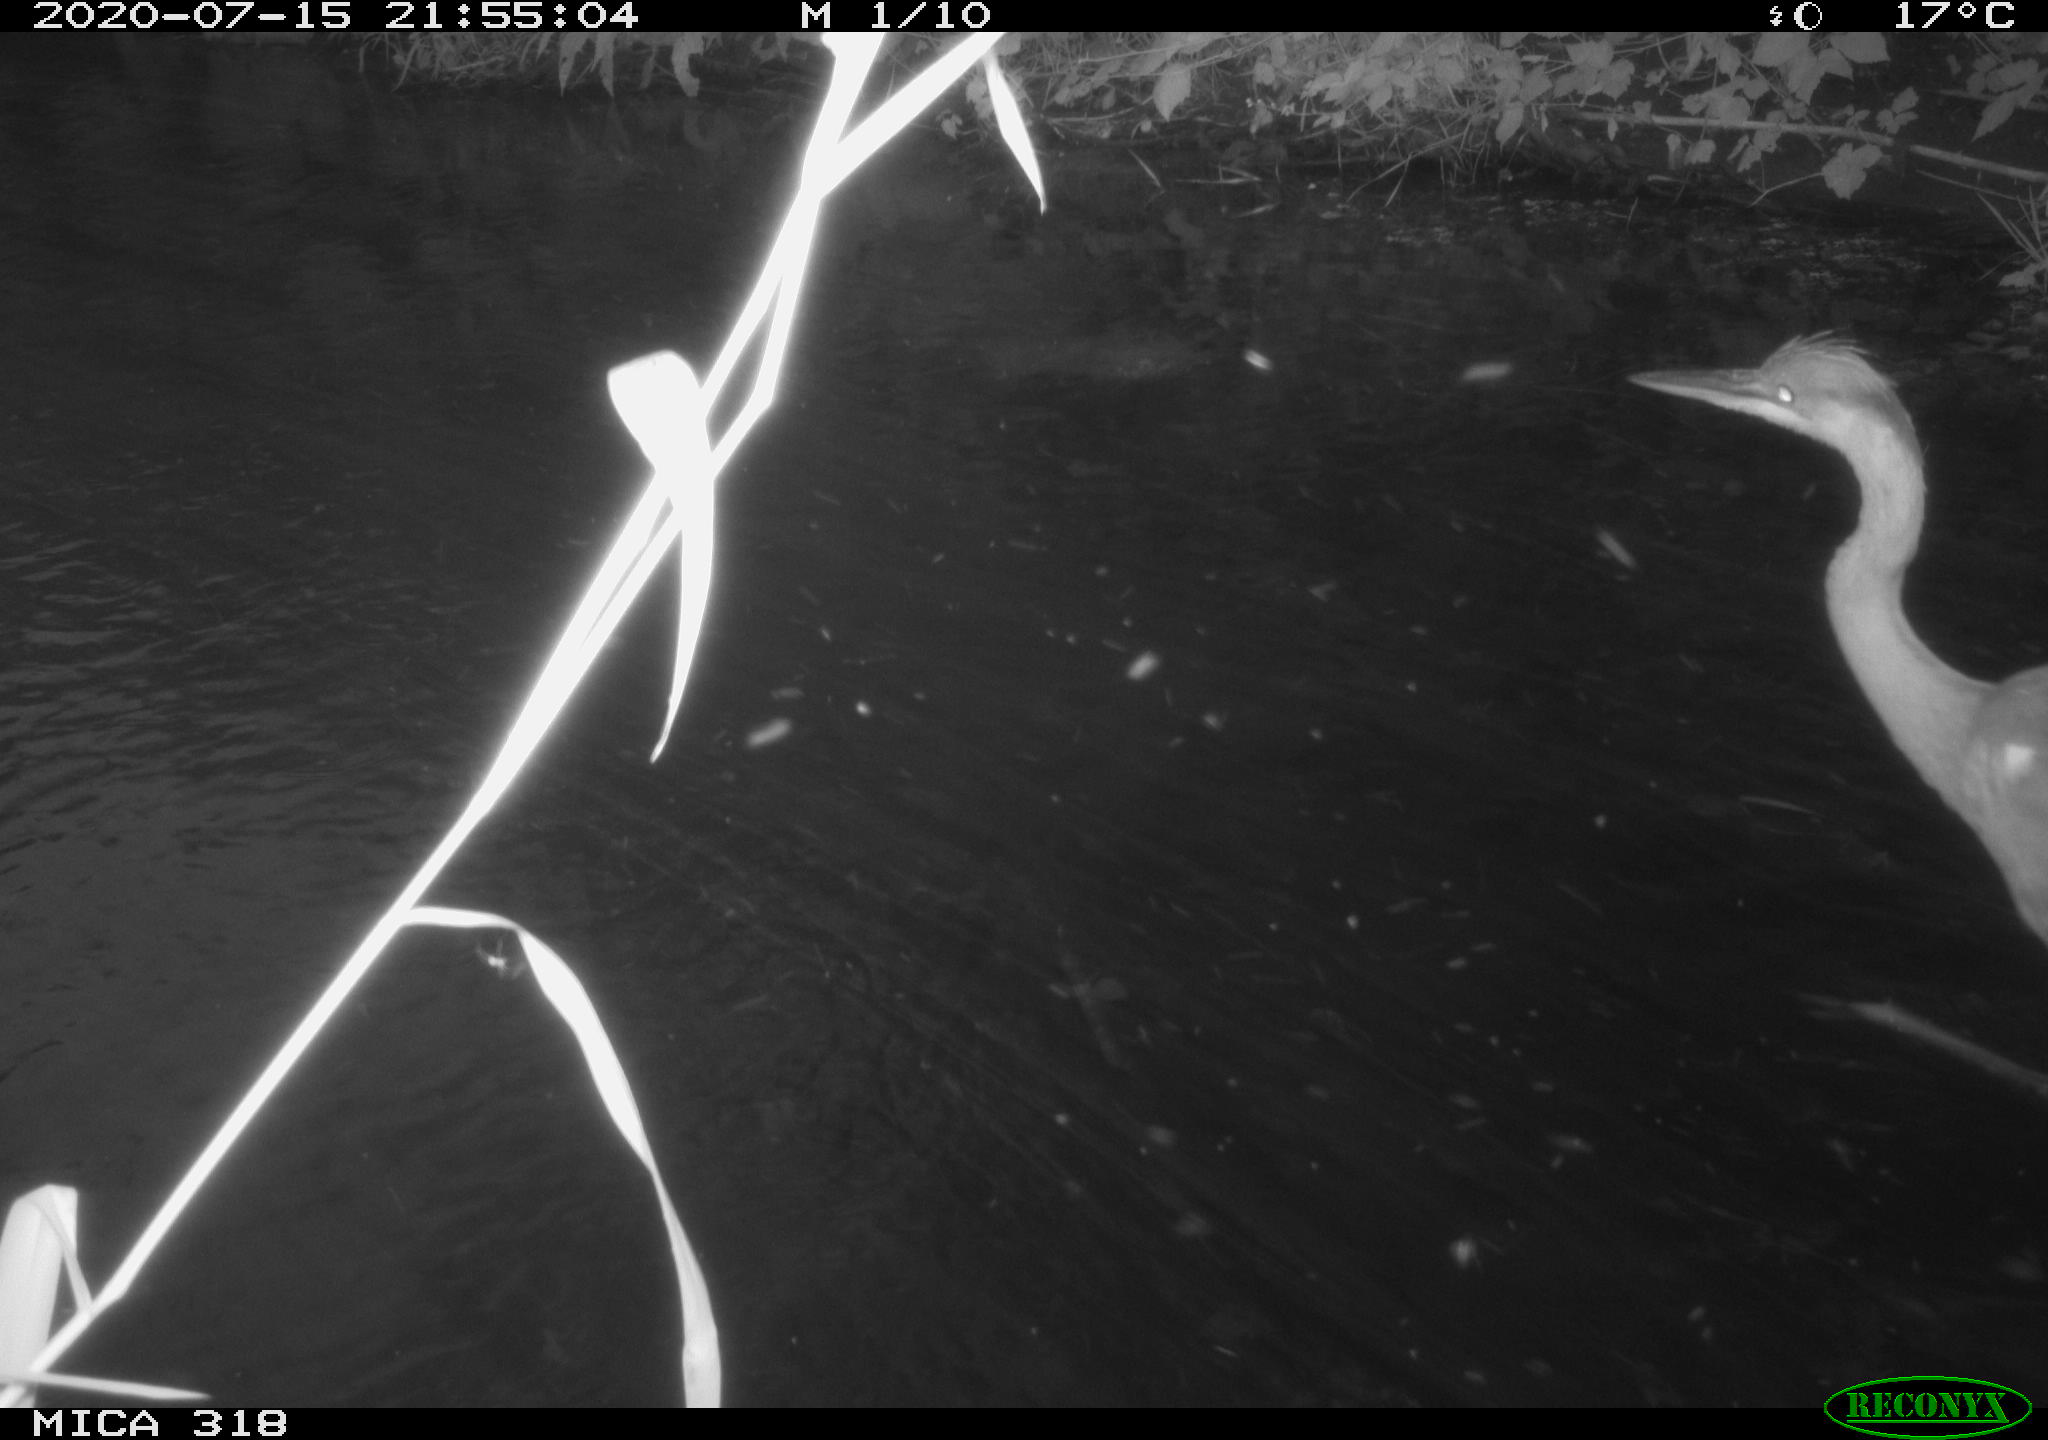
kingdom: Animalia
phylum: Chordata
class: Aves
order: Pelecaniformes
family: Ardeidae
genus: Ardea
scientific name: Ardea cinerea
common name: Grey heron
